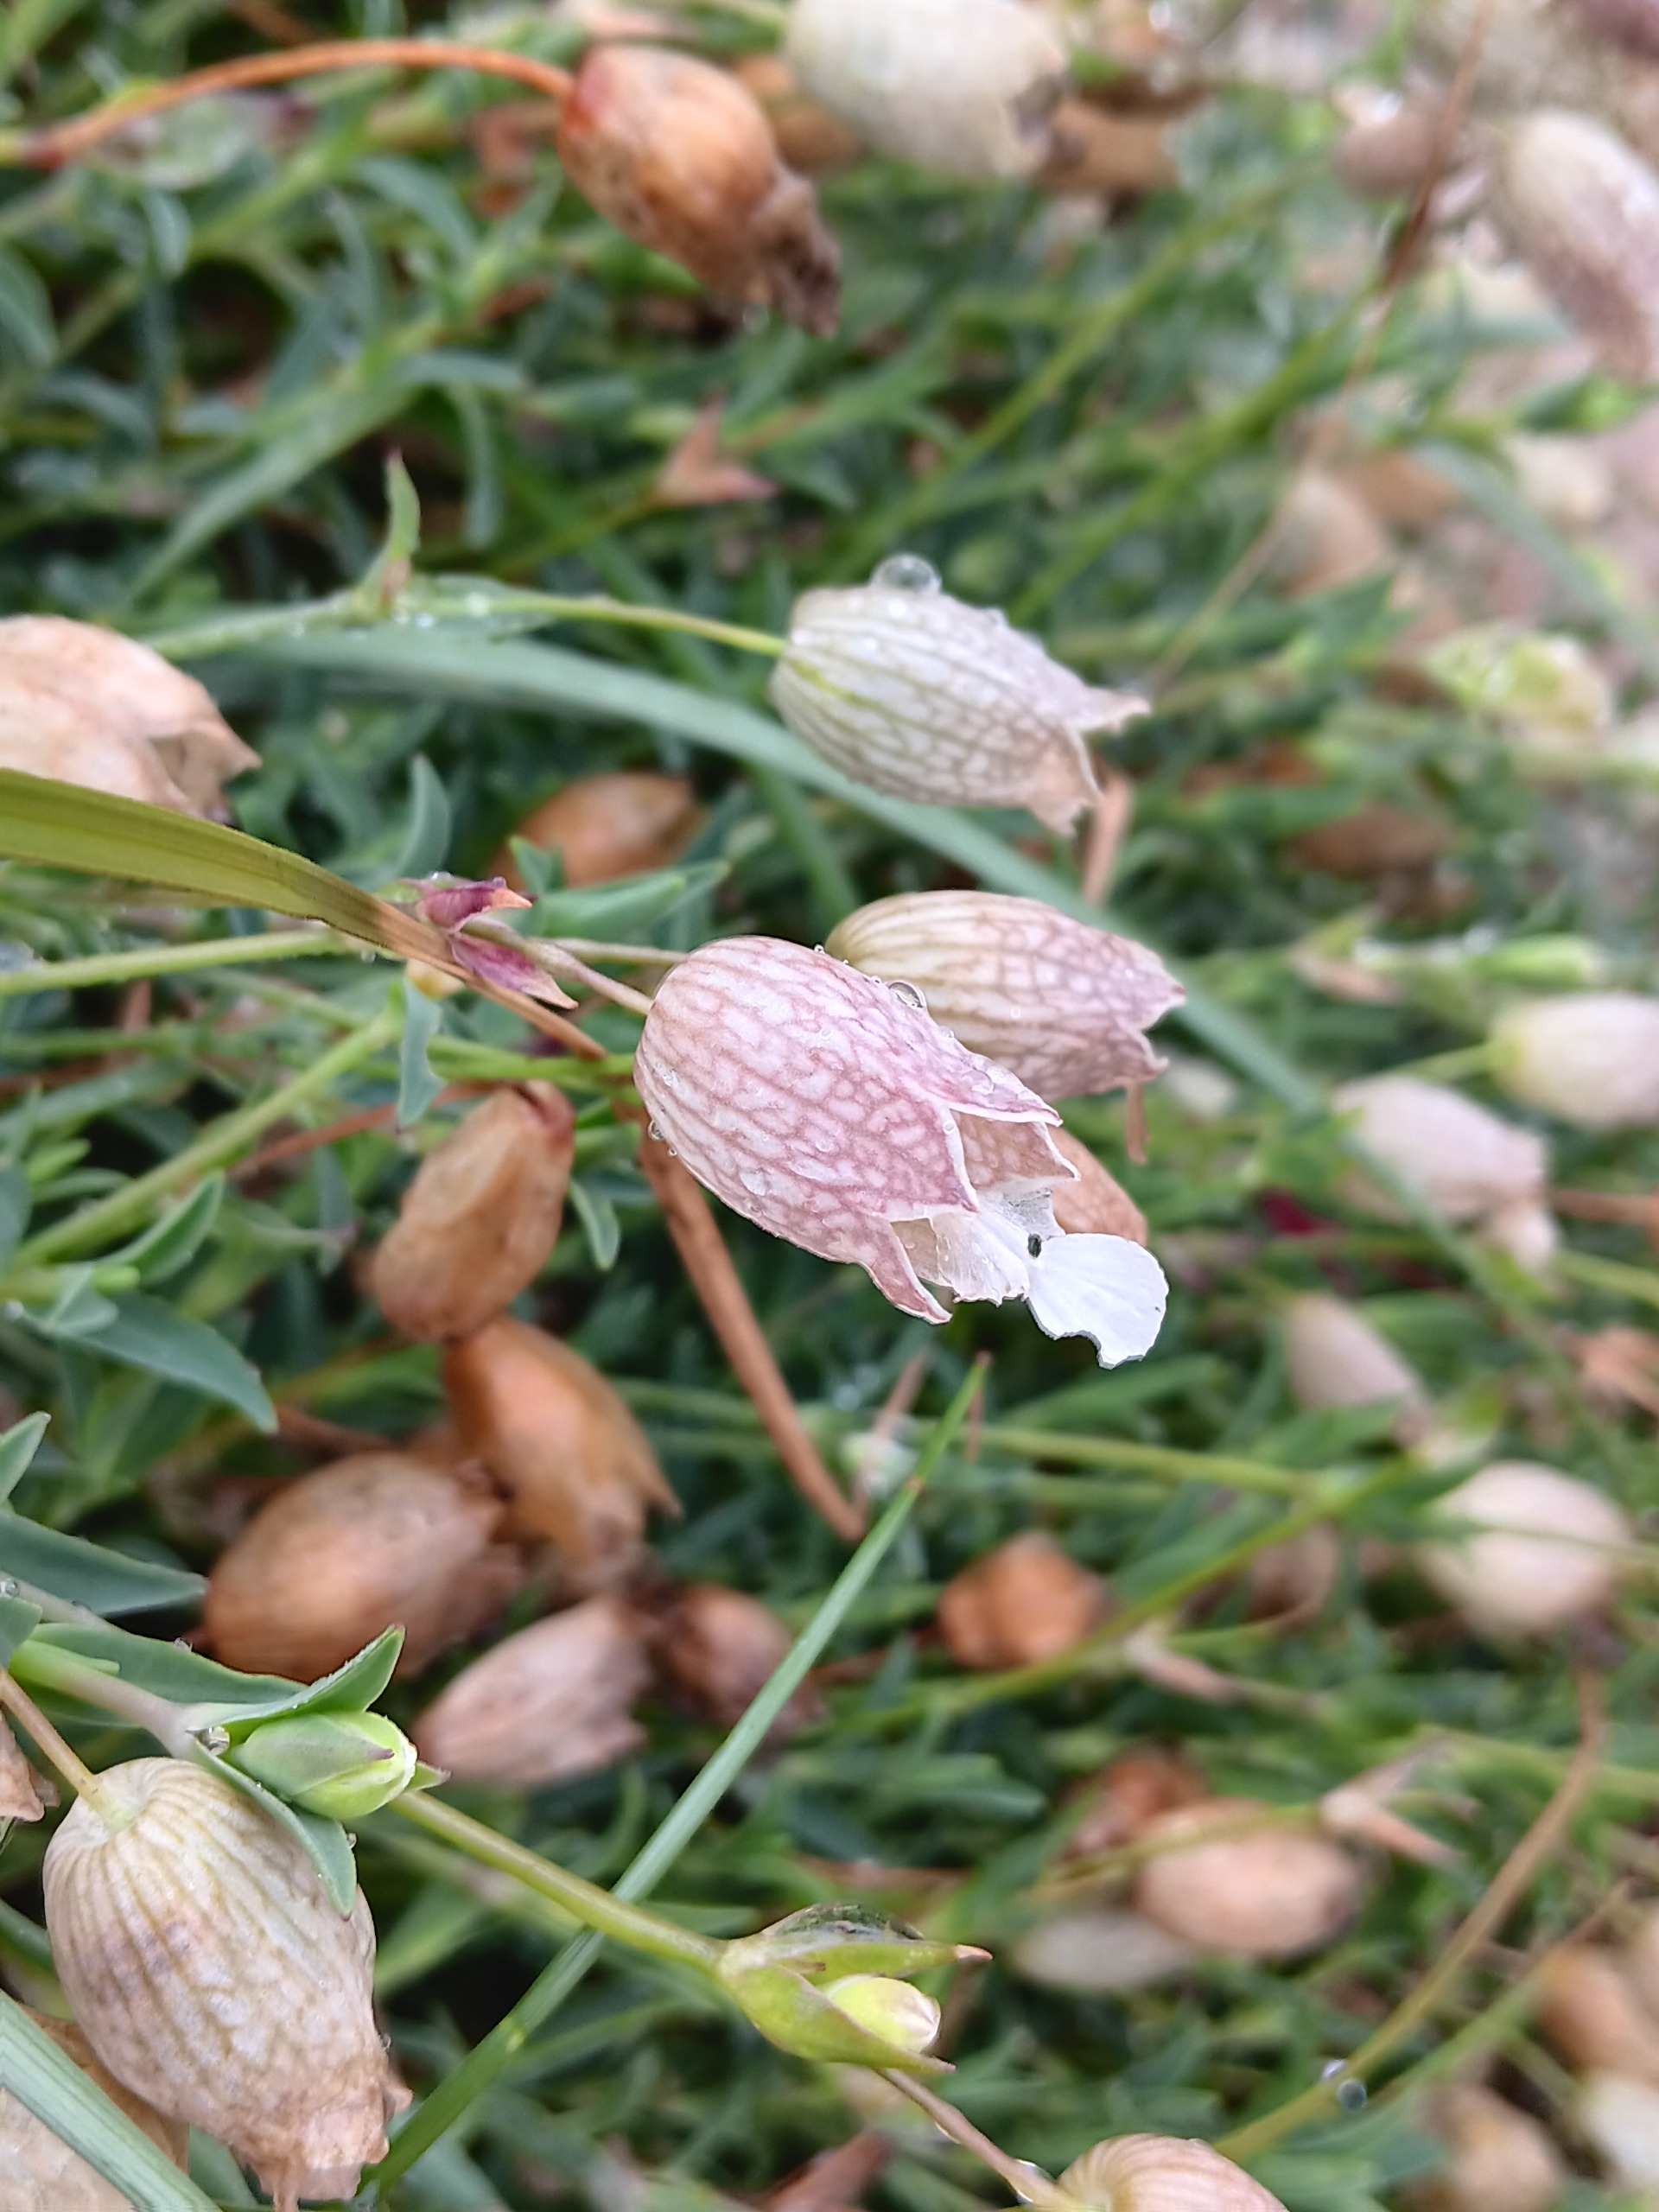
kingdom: Plantae
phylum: Tracheophyta
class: Magnoliopsida
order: Caryophyllales
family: Caryophyllaceae
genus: Silene
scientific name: Silene uniflora
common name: Strand-limurt
